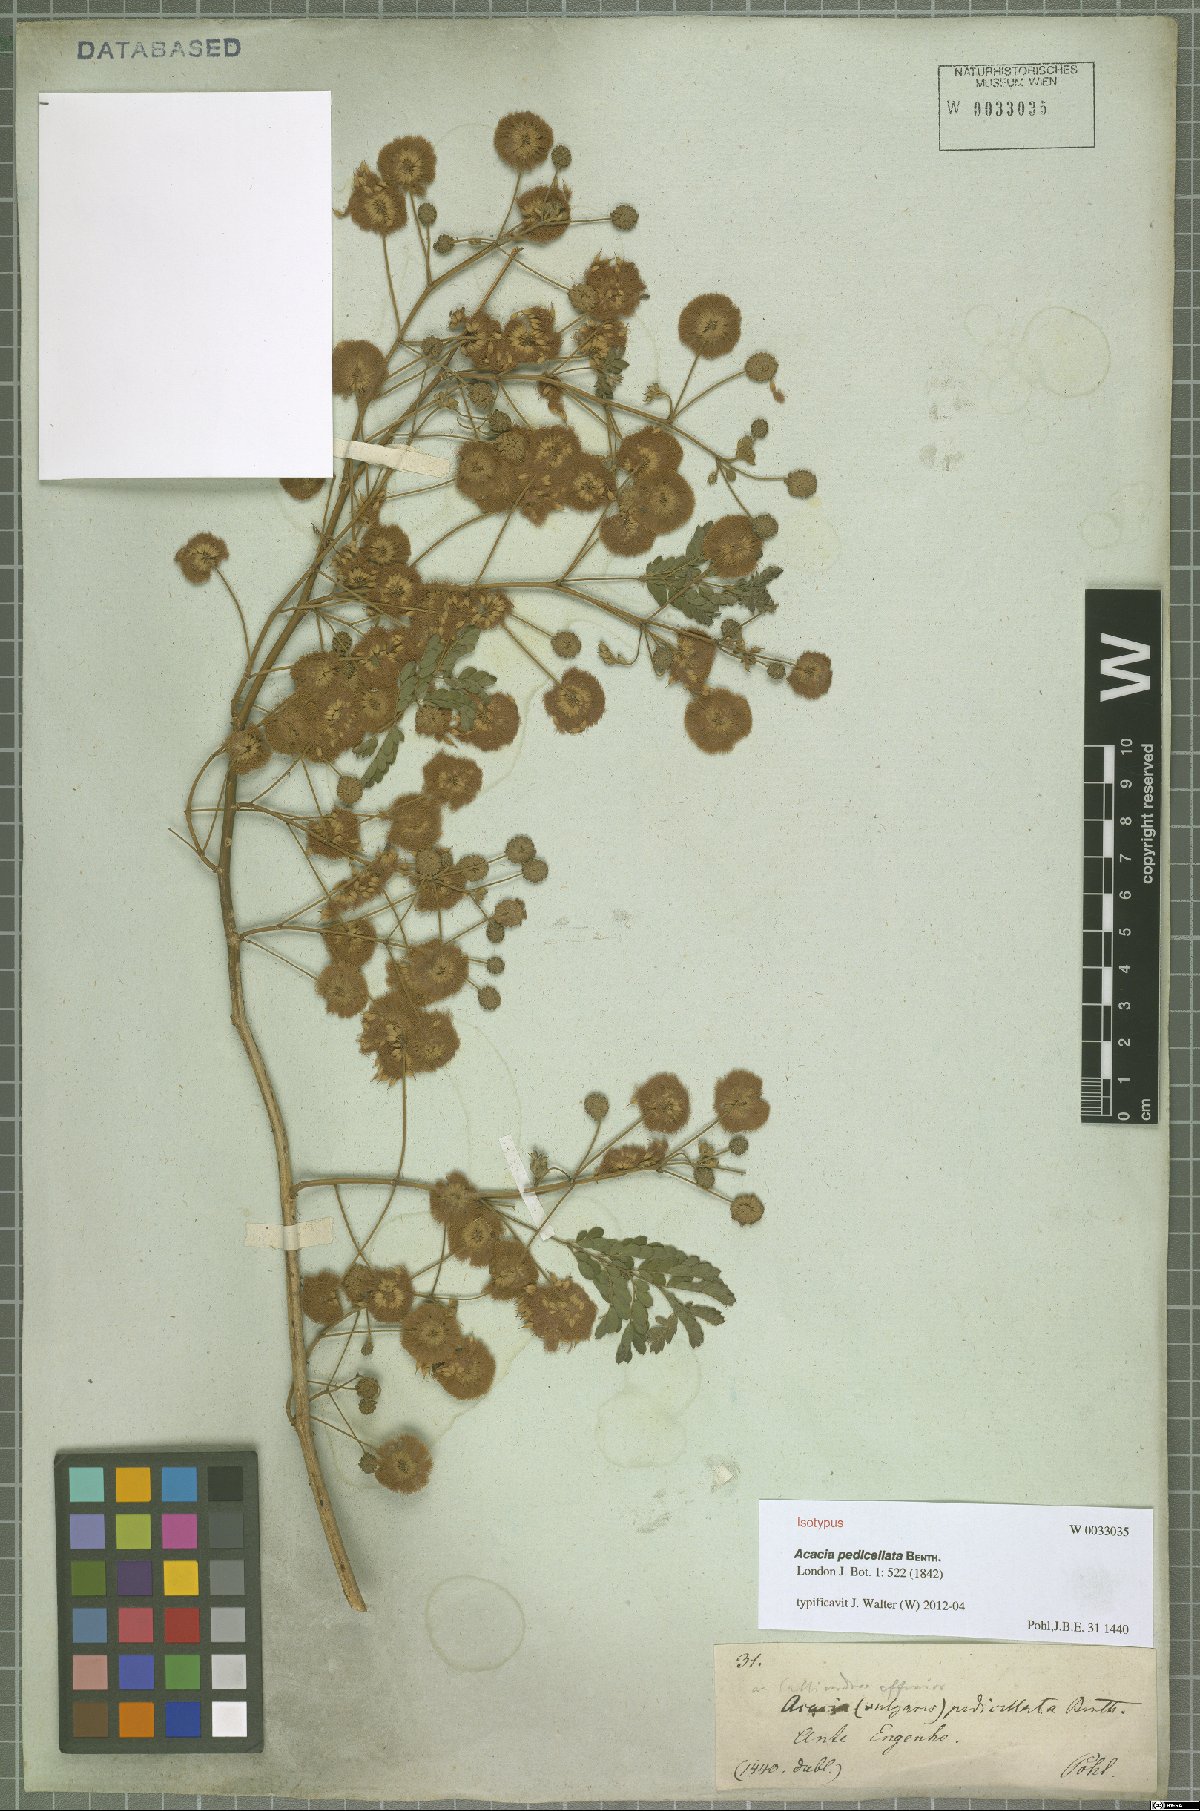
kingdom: Plantae
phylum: Tracheophyta
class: Magnoliopsida
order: Fabales
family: Fabaceae
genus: Senegalia
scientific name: Senegalia pedicellata
